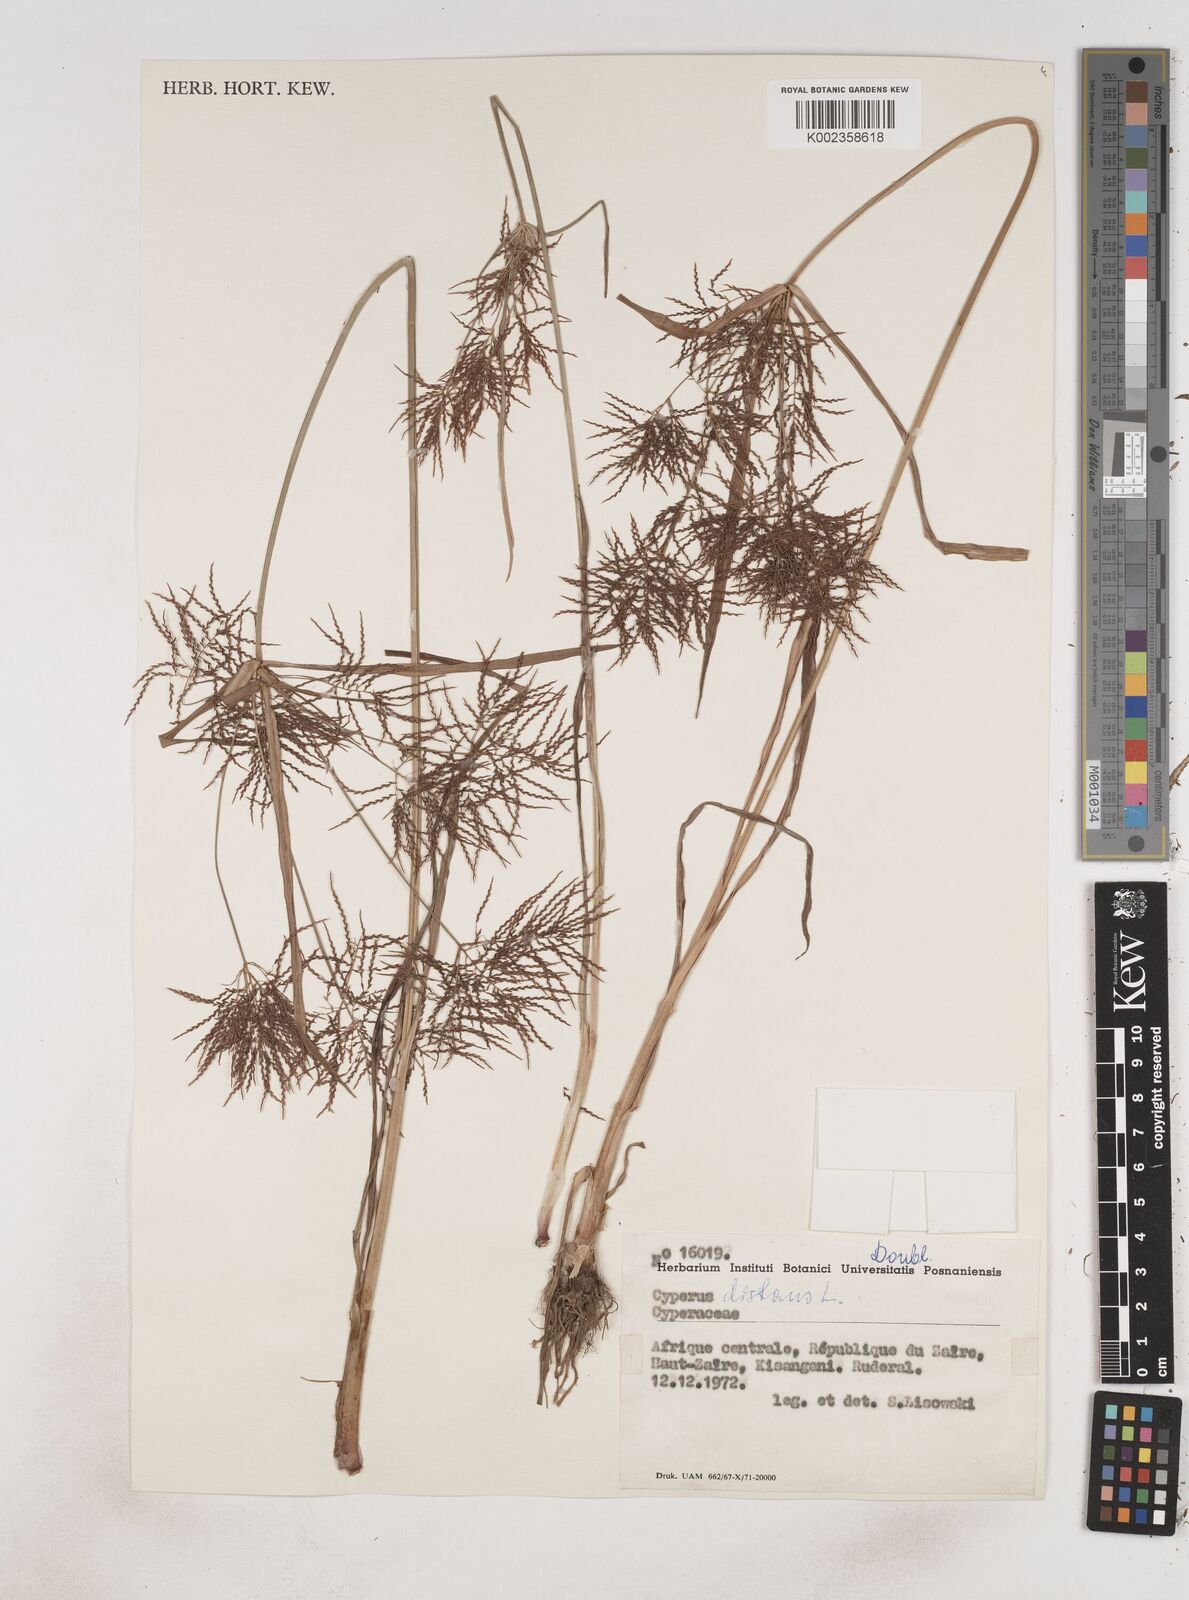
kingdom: Plantae
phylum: Tracheophyta
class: Liliopsida
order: Poales
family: Cyperaceae
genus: Cyperus
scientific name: Cyperus distans
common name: Slender cyperus
